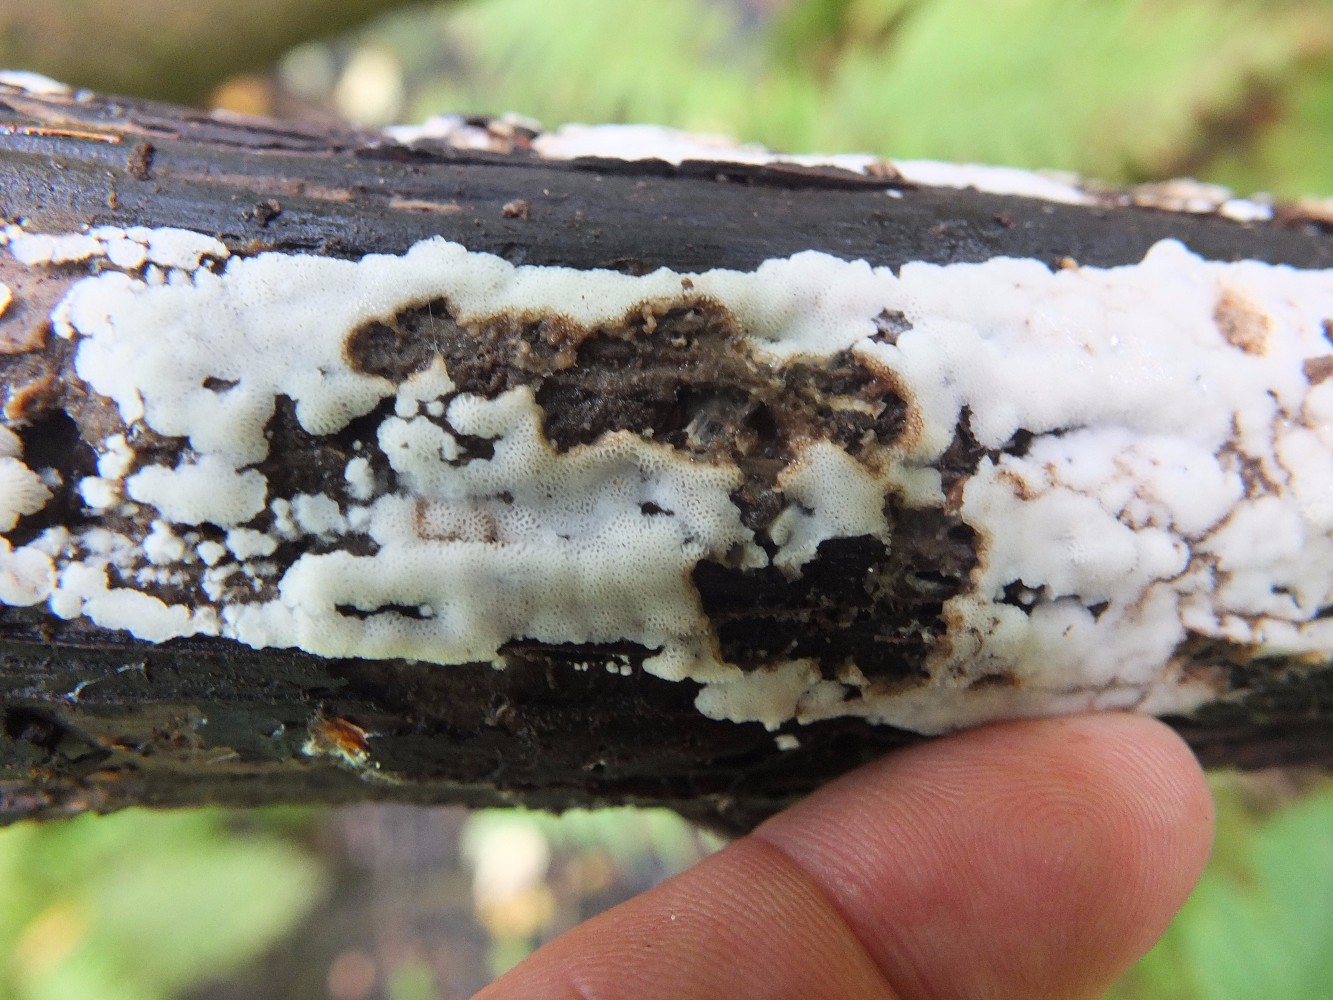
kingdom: Fungi
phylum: Basidiomycota
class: Agaricomycetes
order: Polyporales
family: Meripilaceae
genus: Rigidoporus
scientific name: Rigidoporus sanguinolentus
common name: blod-skorpeporesvamp
